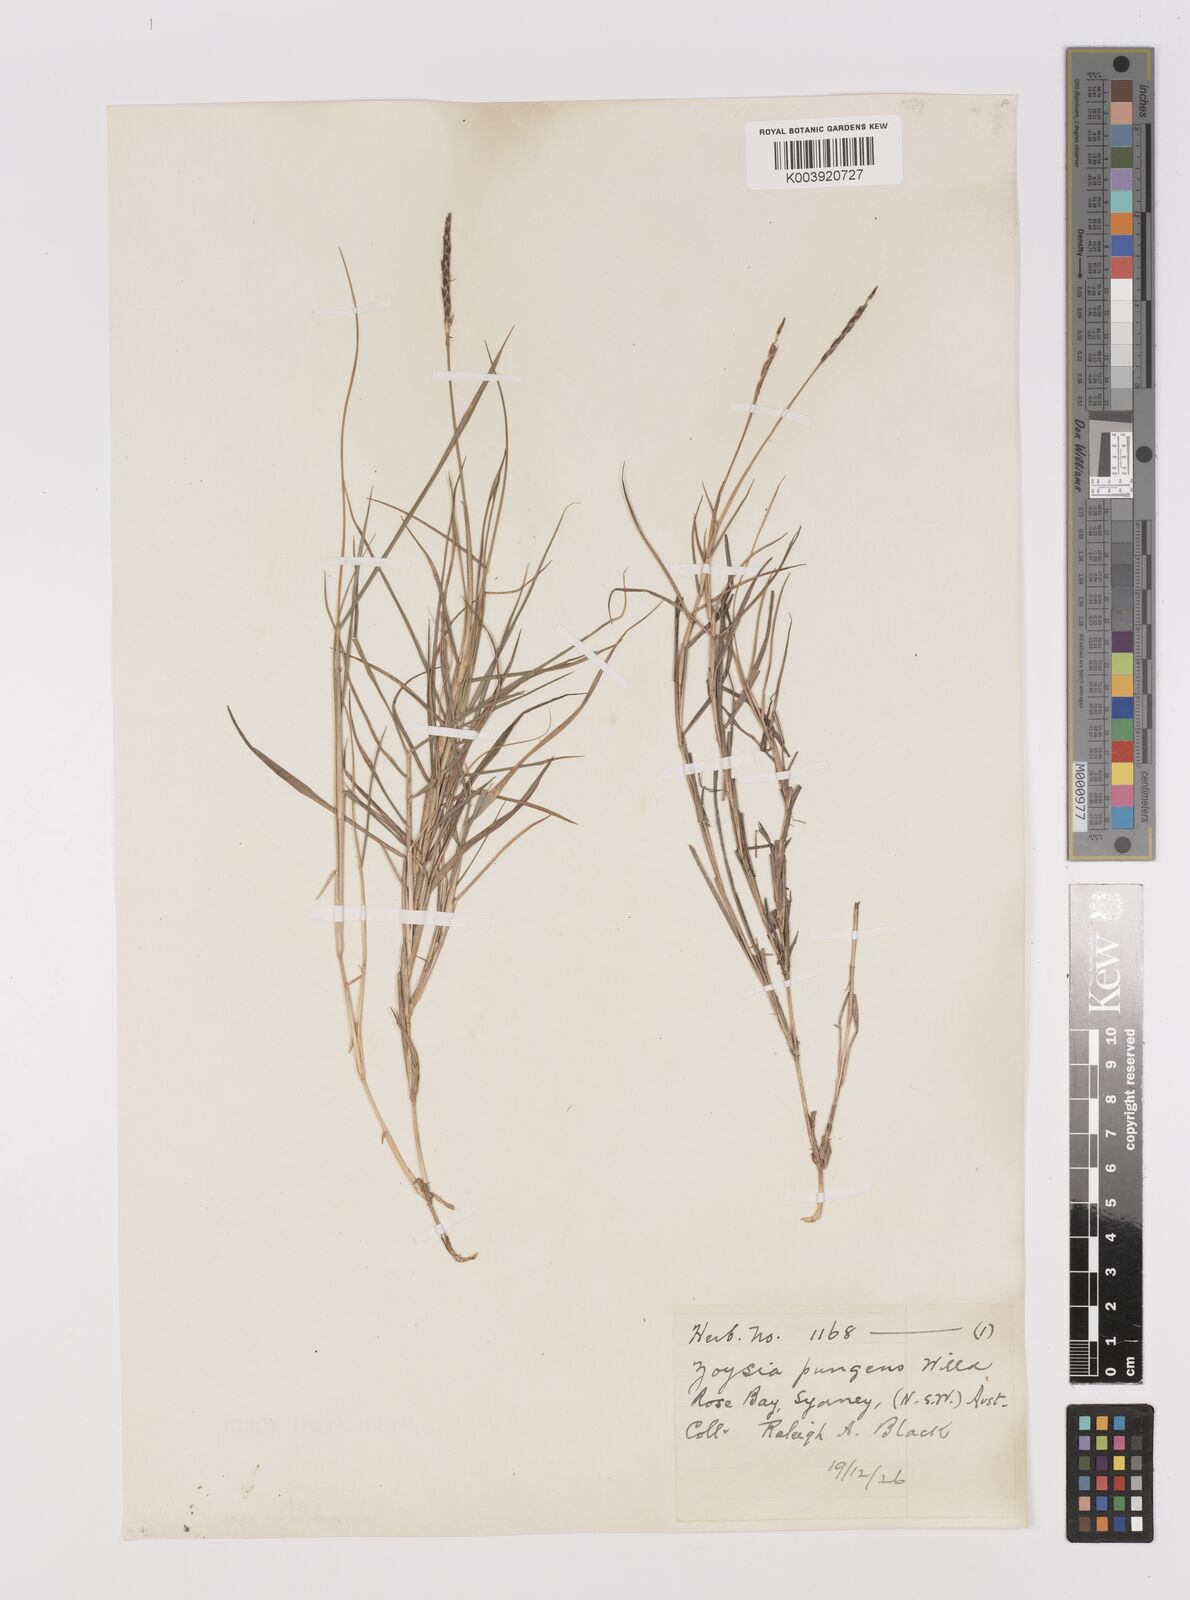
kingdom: Plantae
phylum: Tracheophyta
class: Liliopsida
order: Poales
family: Poaceae
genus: Zoysia
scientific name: Zoysia macrantha
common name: Korean lawn grass
